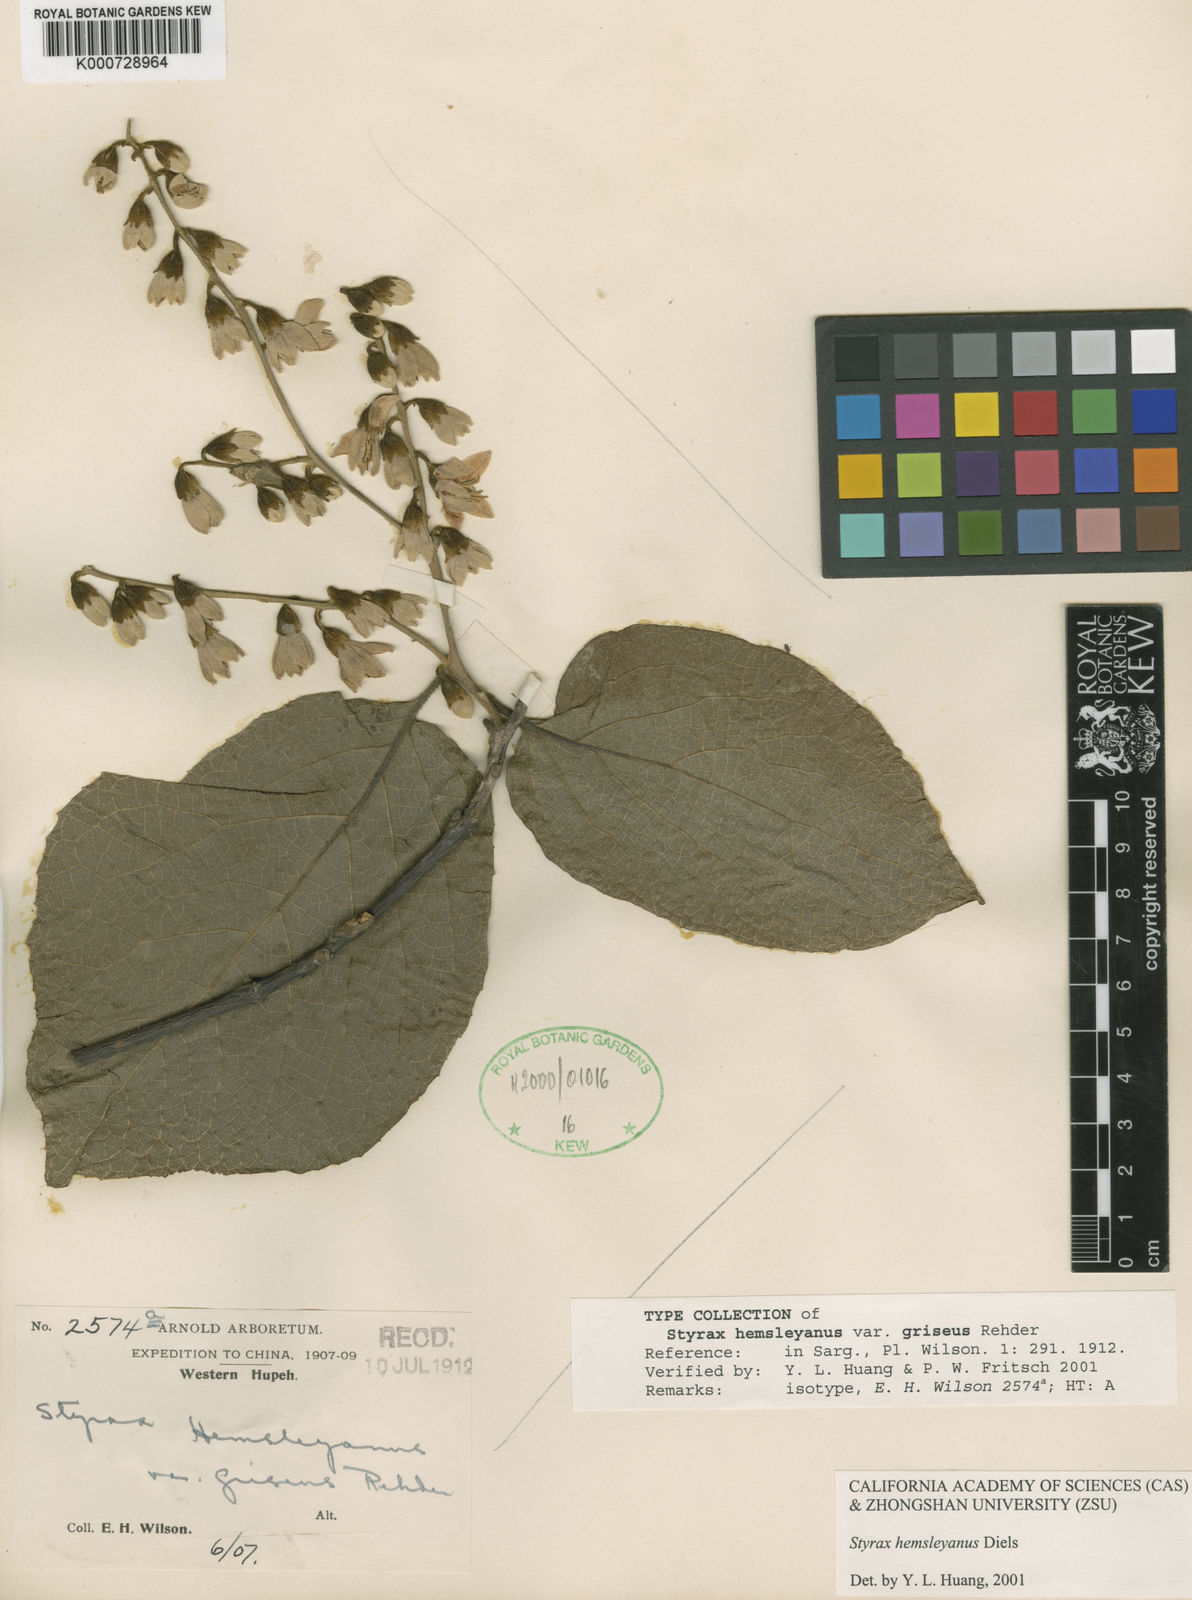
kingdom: Plantae
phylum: Tracheophyta
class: Magnoliopsida
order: Ericales
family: Styracaceae
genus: Styrax
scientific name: Styrax hemsleyanus
